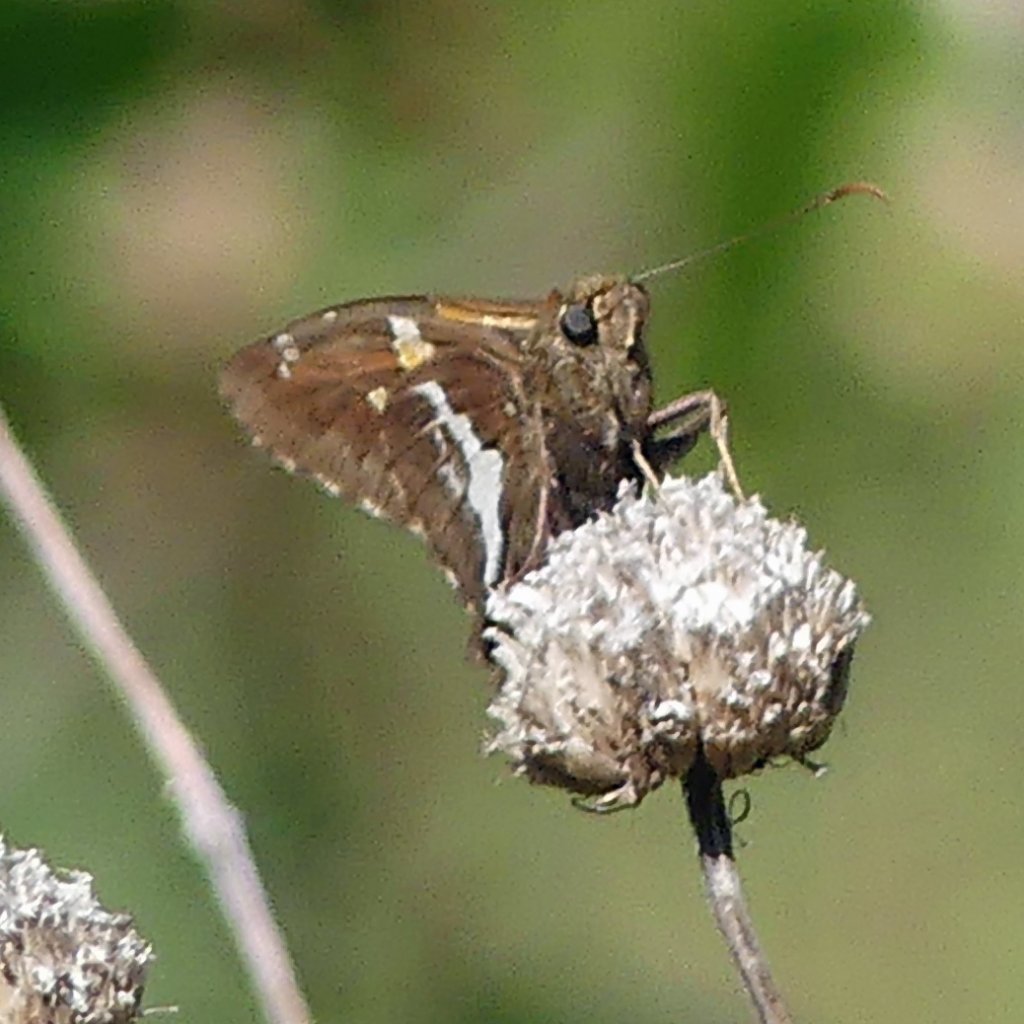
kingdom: Animalia
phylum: Arthropoda
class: Insecta
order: Lepidoptera
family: Hesperiidae
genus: Epargyreus
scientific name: Epargyreus clarus
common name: Silver-spotted Skipper
